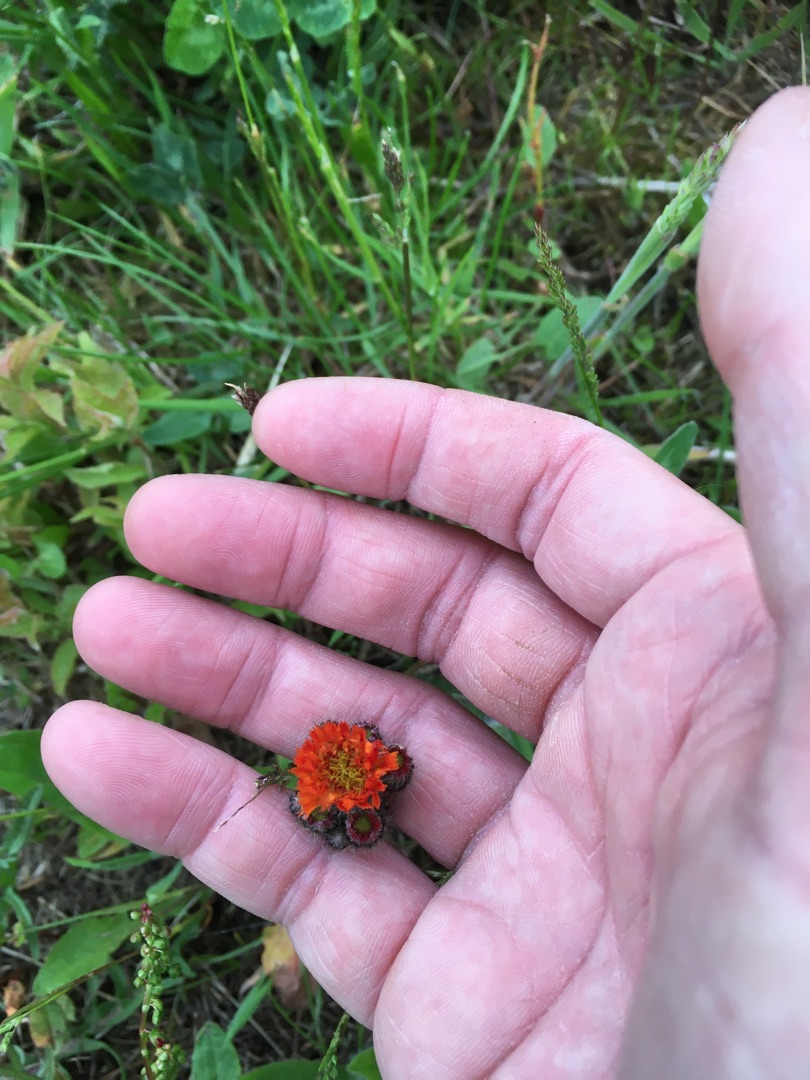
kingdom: Plantae
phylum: Tracheophyta
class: Magnoliopsida
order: Asterales
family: Asteraceae
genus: Pilosella
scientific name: Pilosella aurantiaca
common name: Pomerans-høgeurt
